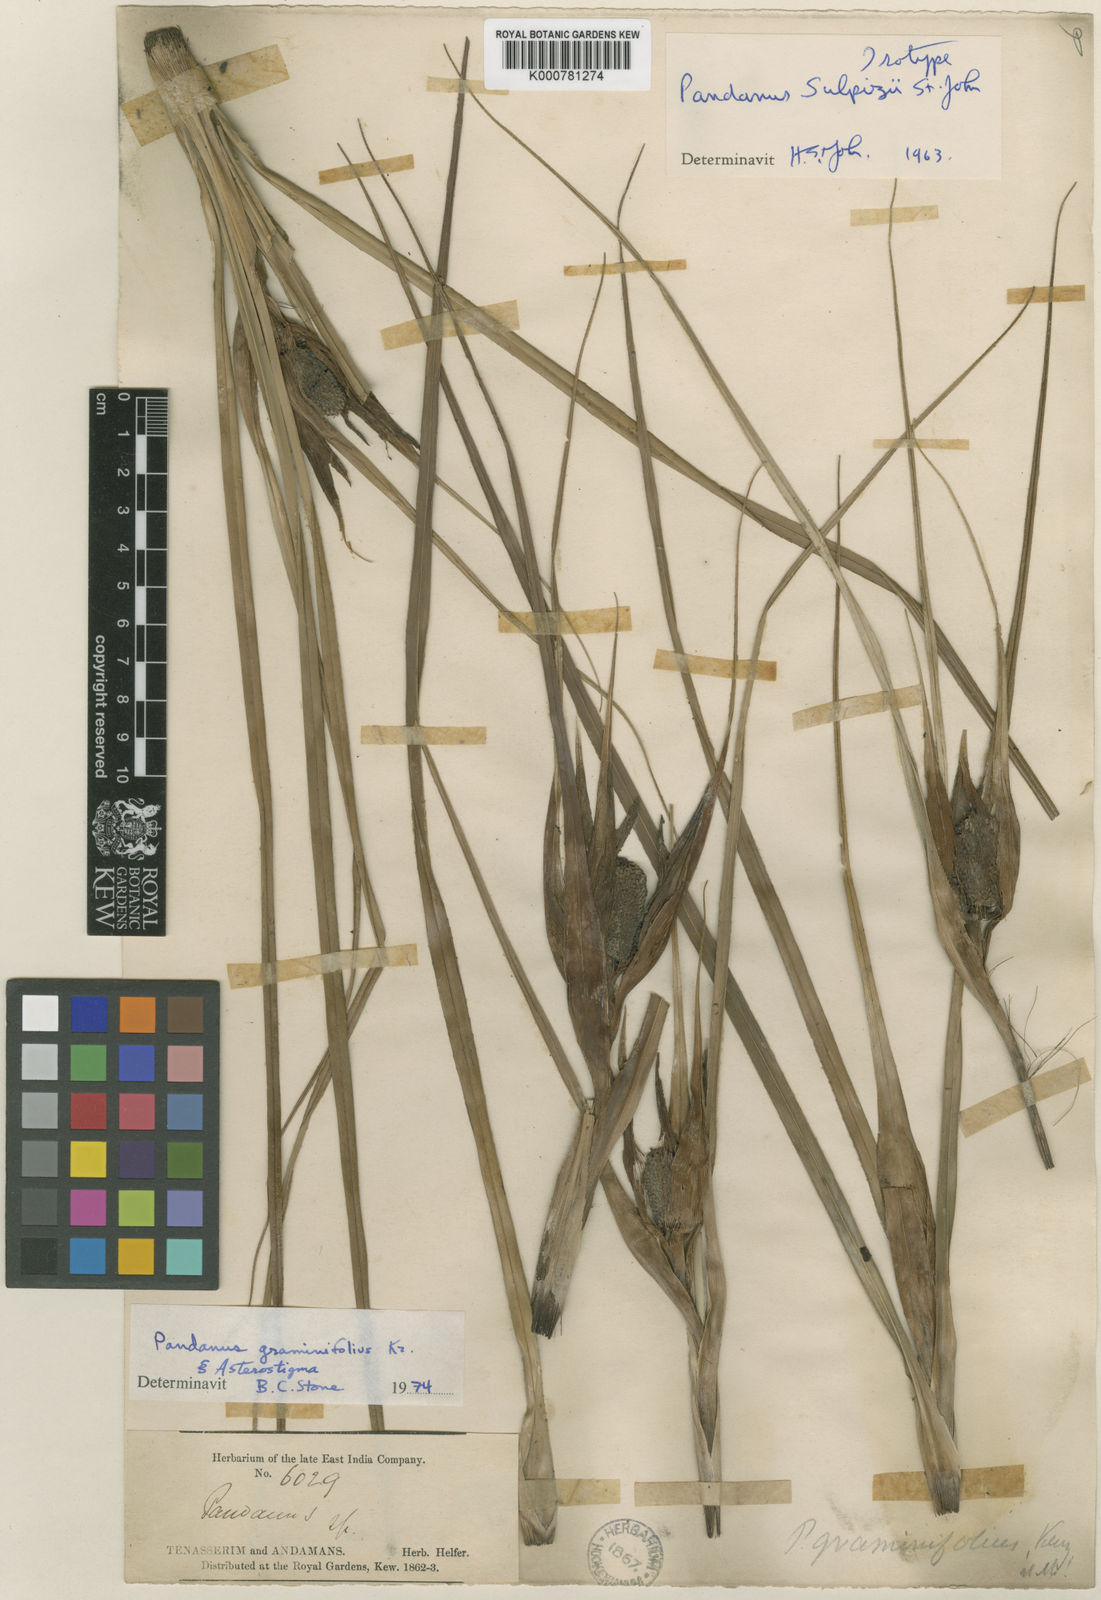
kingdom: Plantae
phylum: Tracheophyta
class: Liliopsida
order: Pandanales
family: Pandanaceae
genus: Pandanus
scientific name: Pandanus graminifolius
